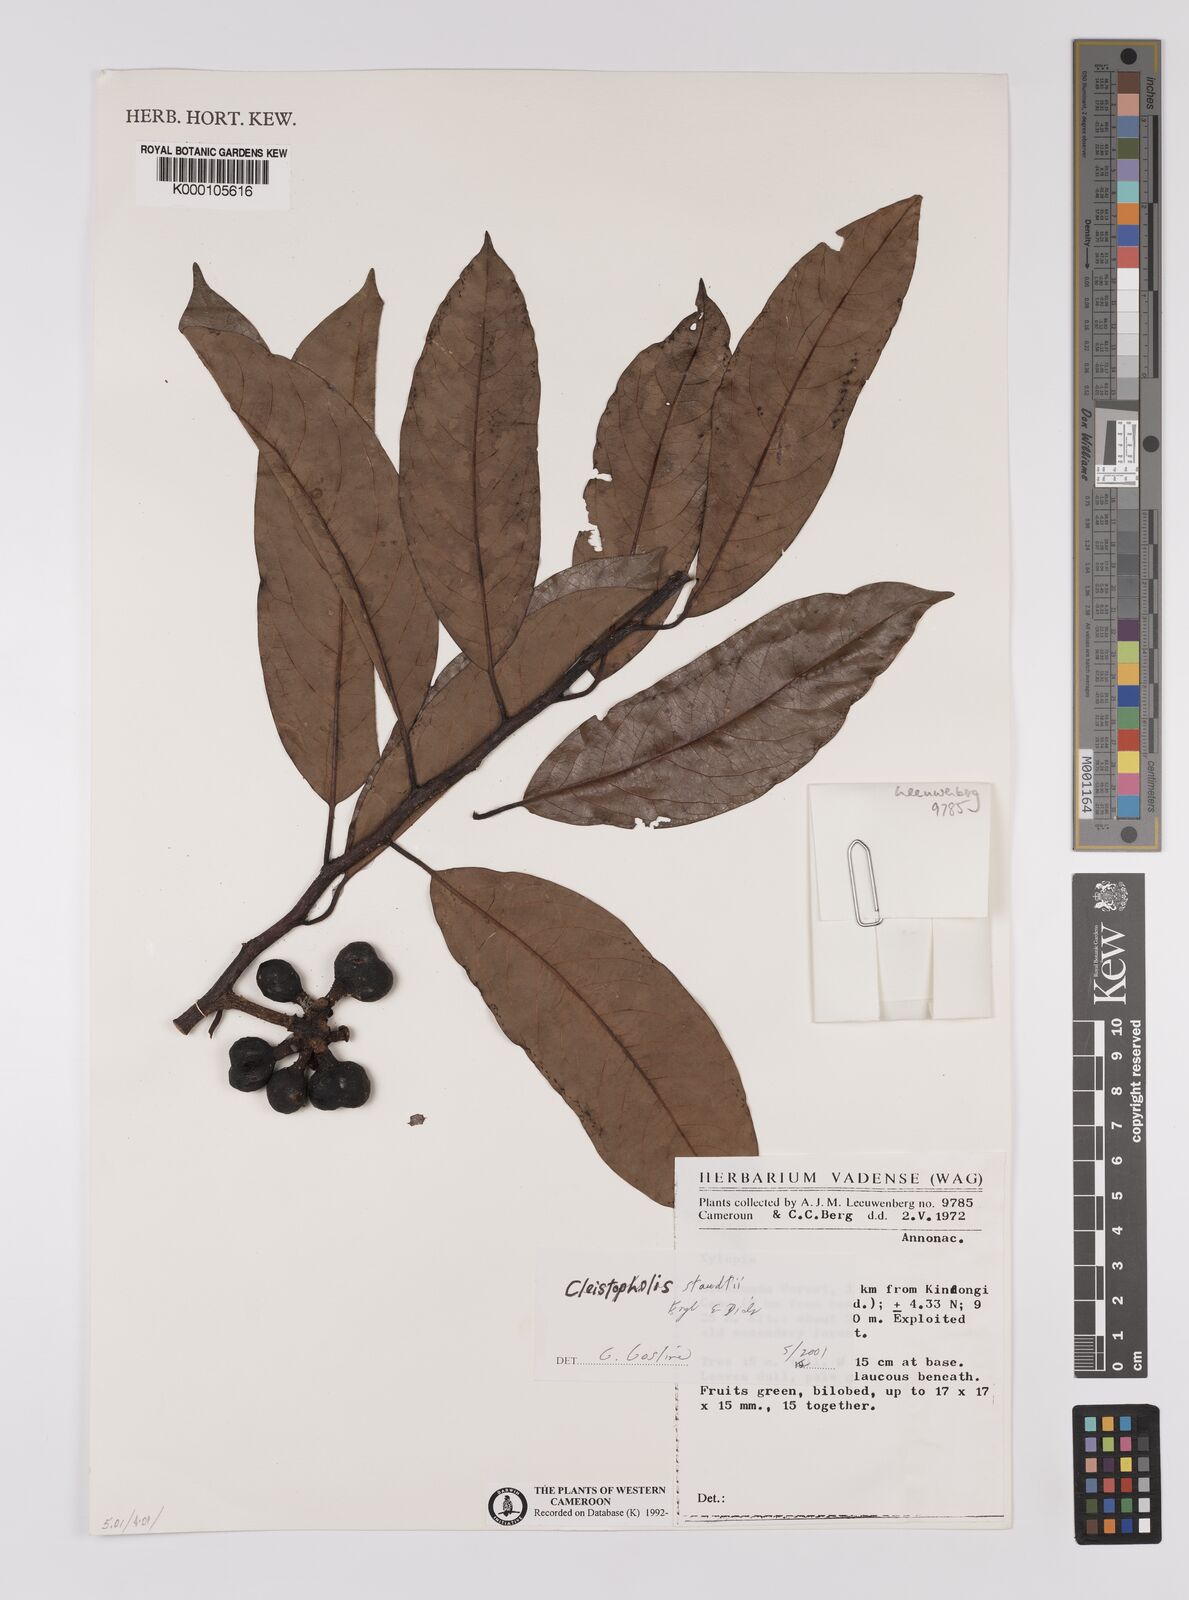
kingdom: Plantae
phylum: Tracheophyta
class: Magnoliopsida
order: Magnoliales
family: Annonaceae
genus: Xylopia
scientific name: Xylopia
